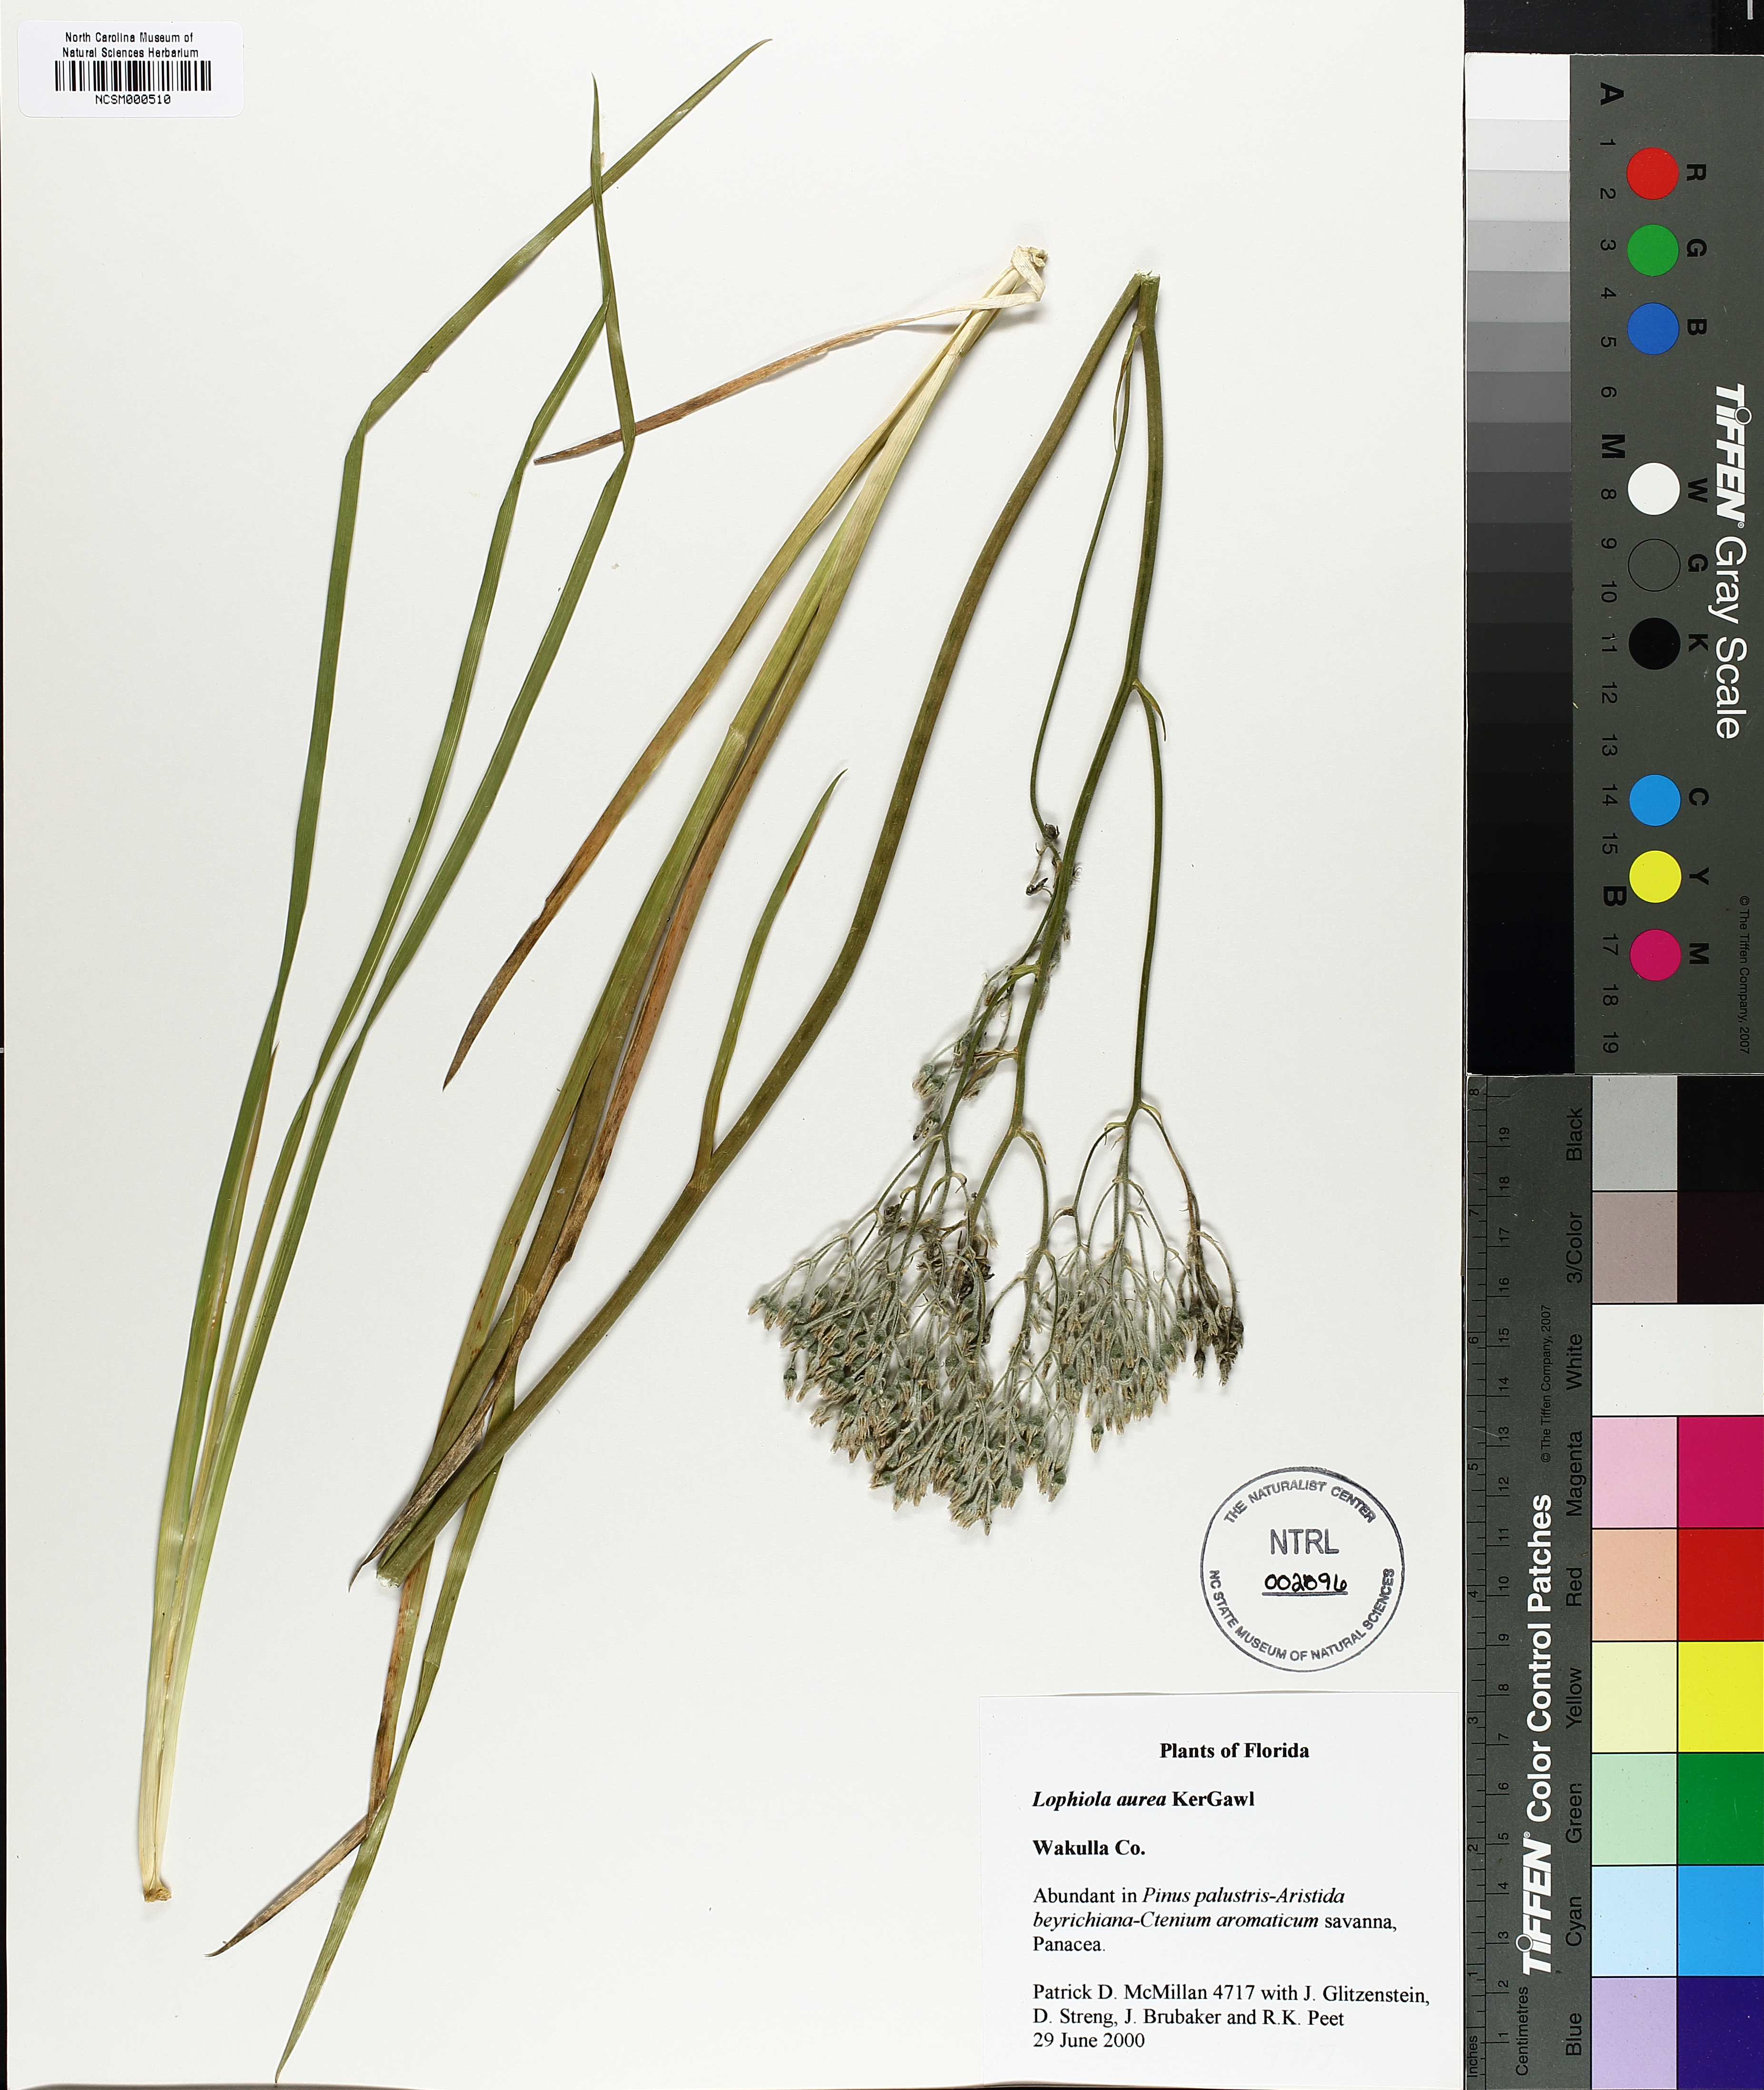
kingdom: Plantae
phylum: Tracheophyta
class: Liliopsida
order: Dioscoreales
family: Nartheciaceae
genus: Lophiola
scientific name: Lophiola aurea
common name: Golden-crest
